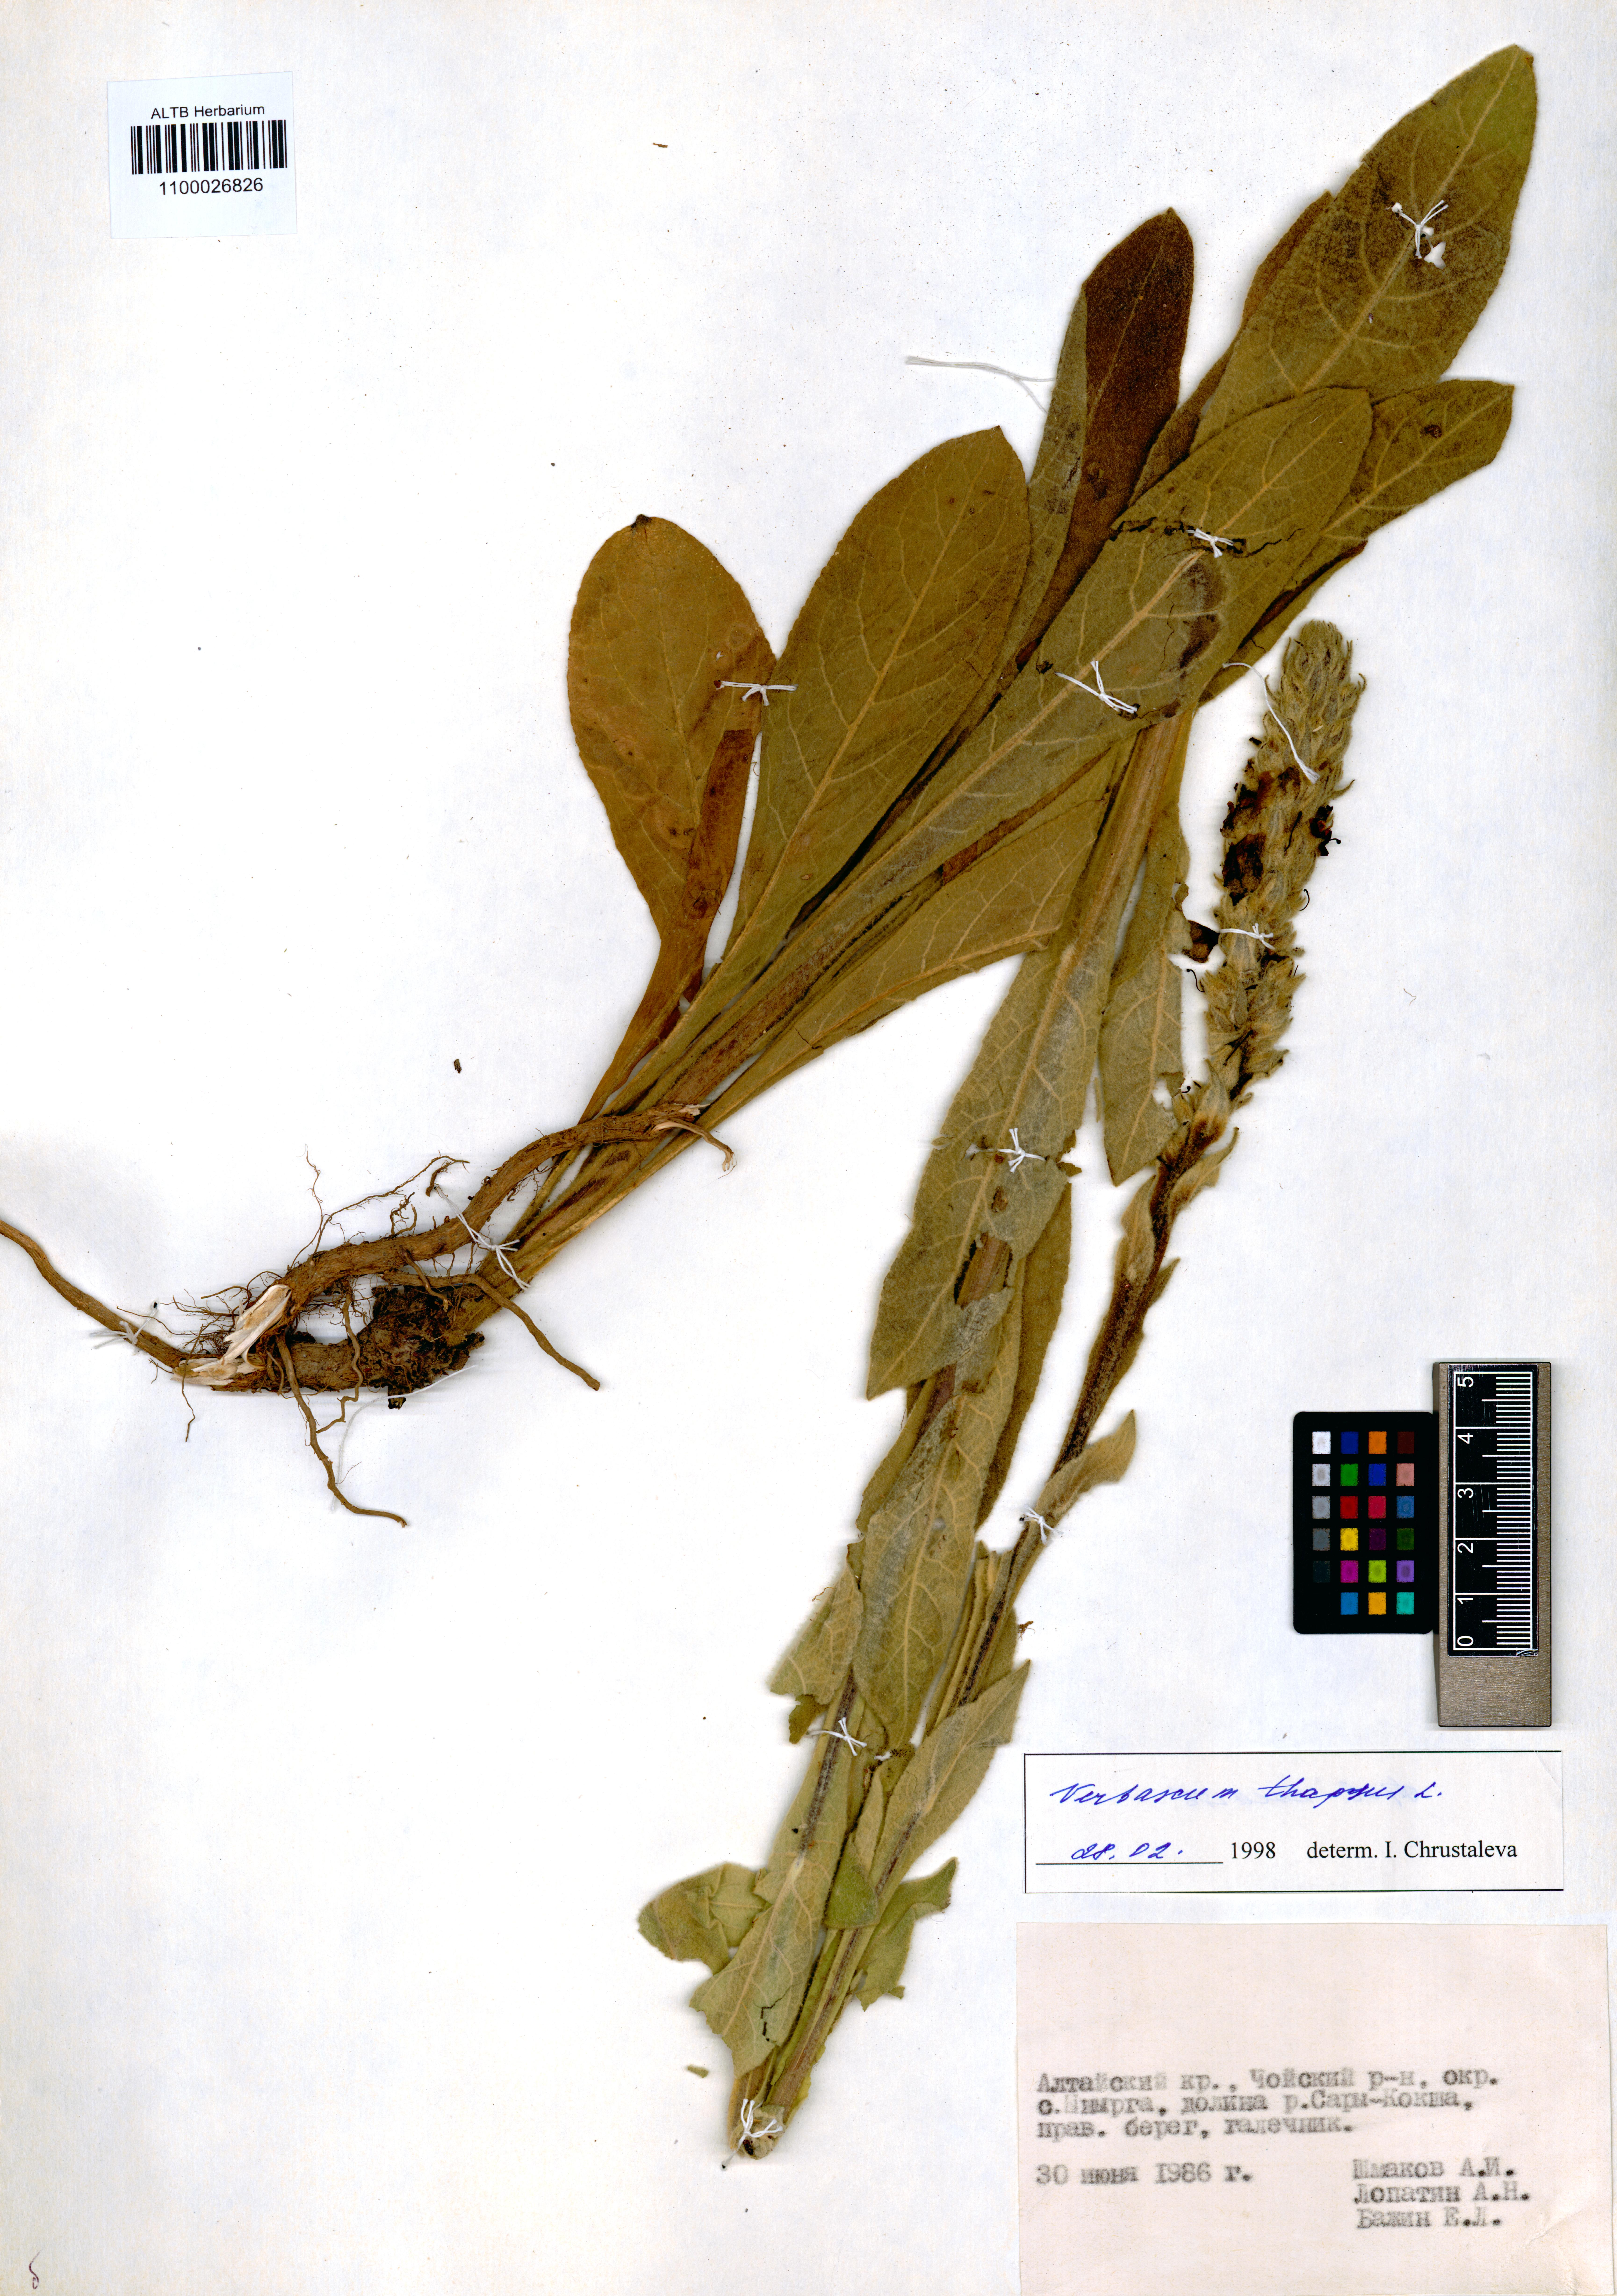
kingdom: Plantae
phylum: Tracheophyta
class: Magnoliopsida
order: Lamiales
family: Scrophulariaceae
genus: Verbascum
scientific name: Verbascum thapsus
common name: Common mullein
